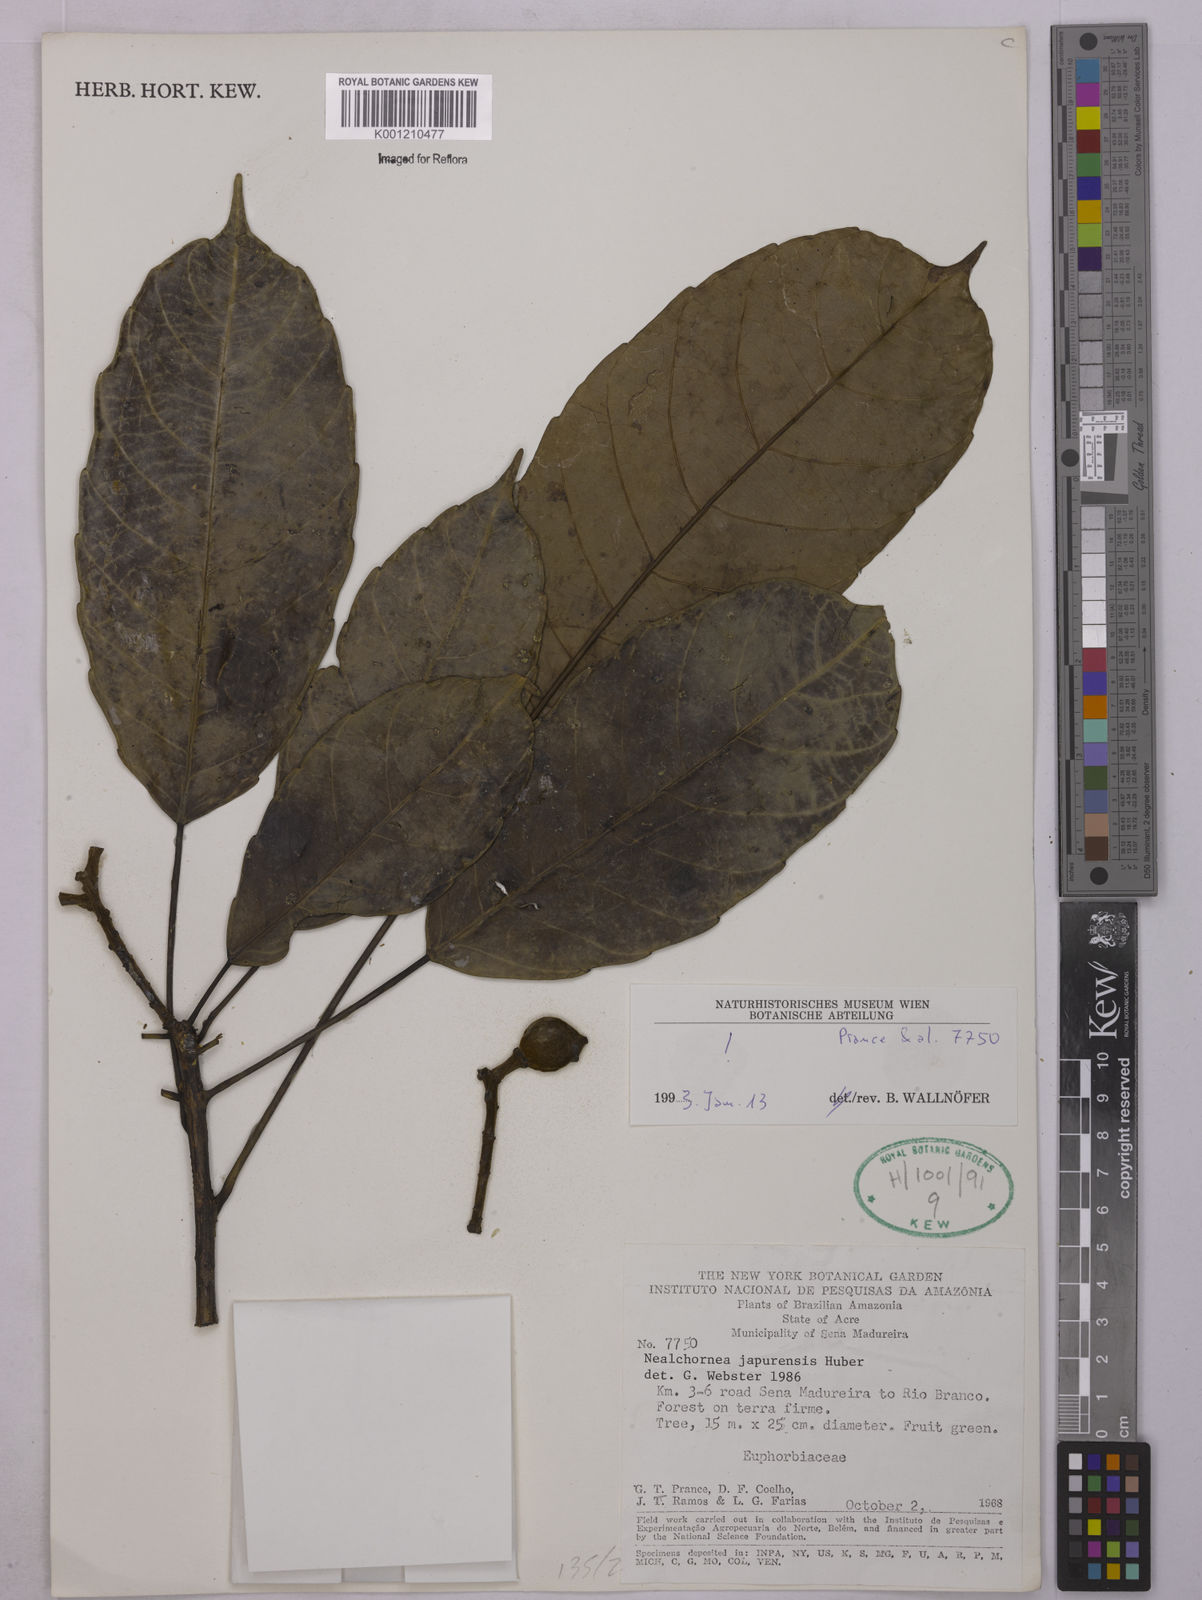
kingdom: Plantae
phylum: Tracheophyta
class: Magnoliopsida
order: Malpighiales
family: Euphorbiaceae
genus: Nealchornea
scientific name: Nealchornea yapurensis
